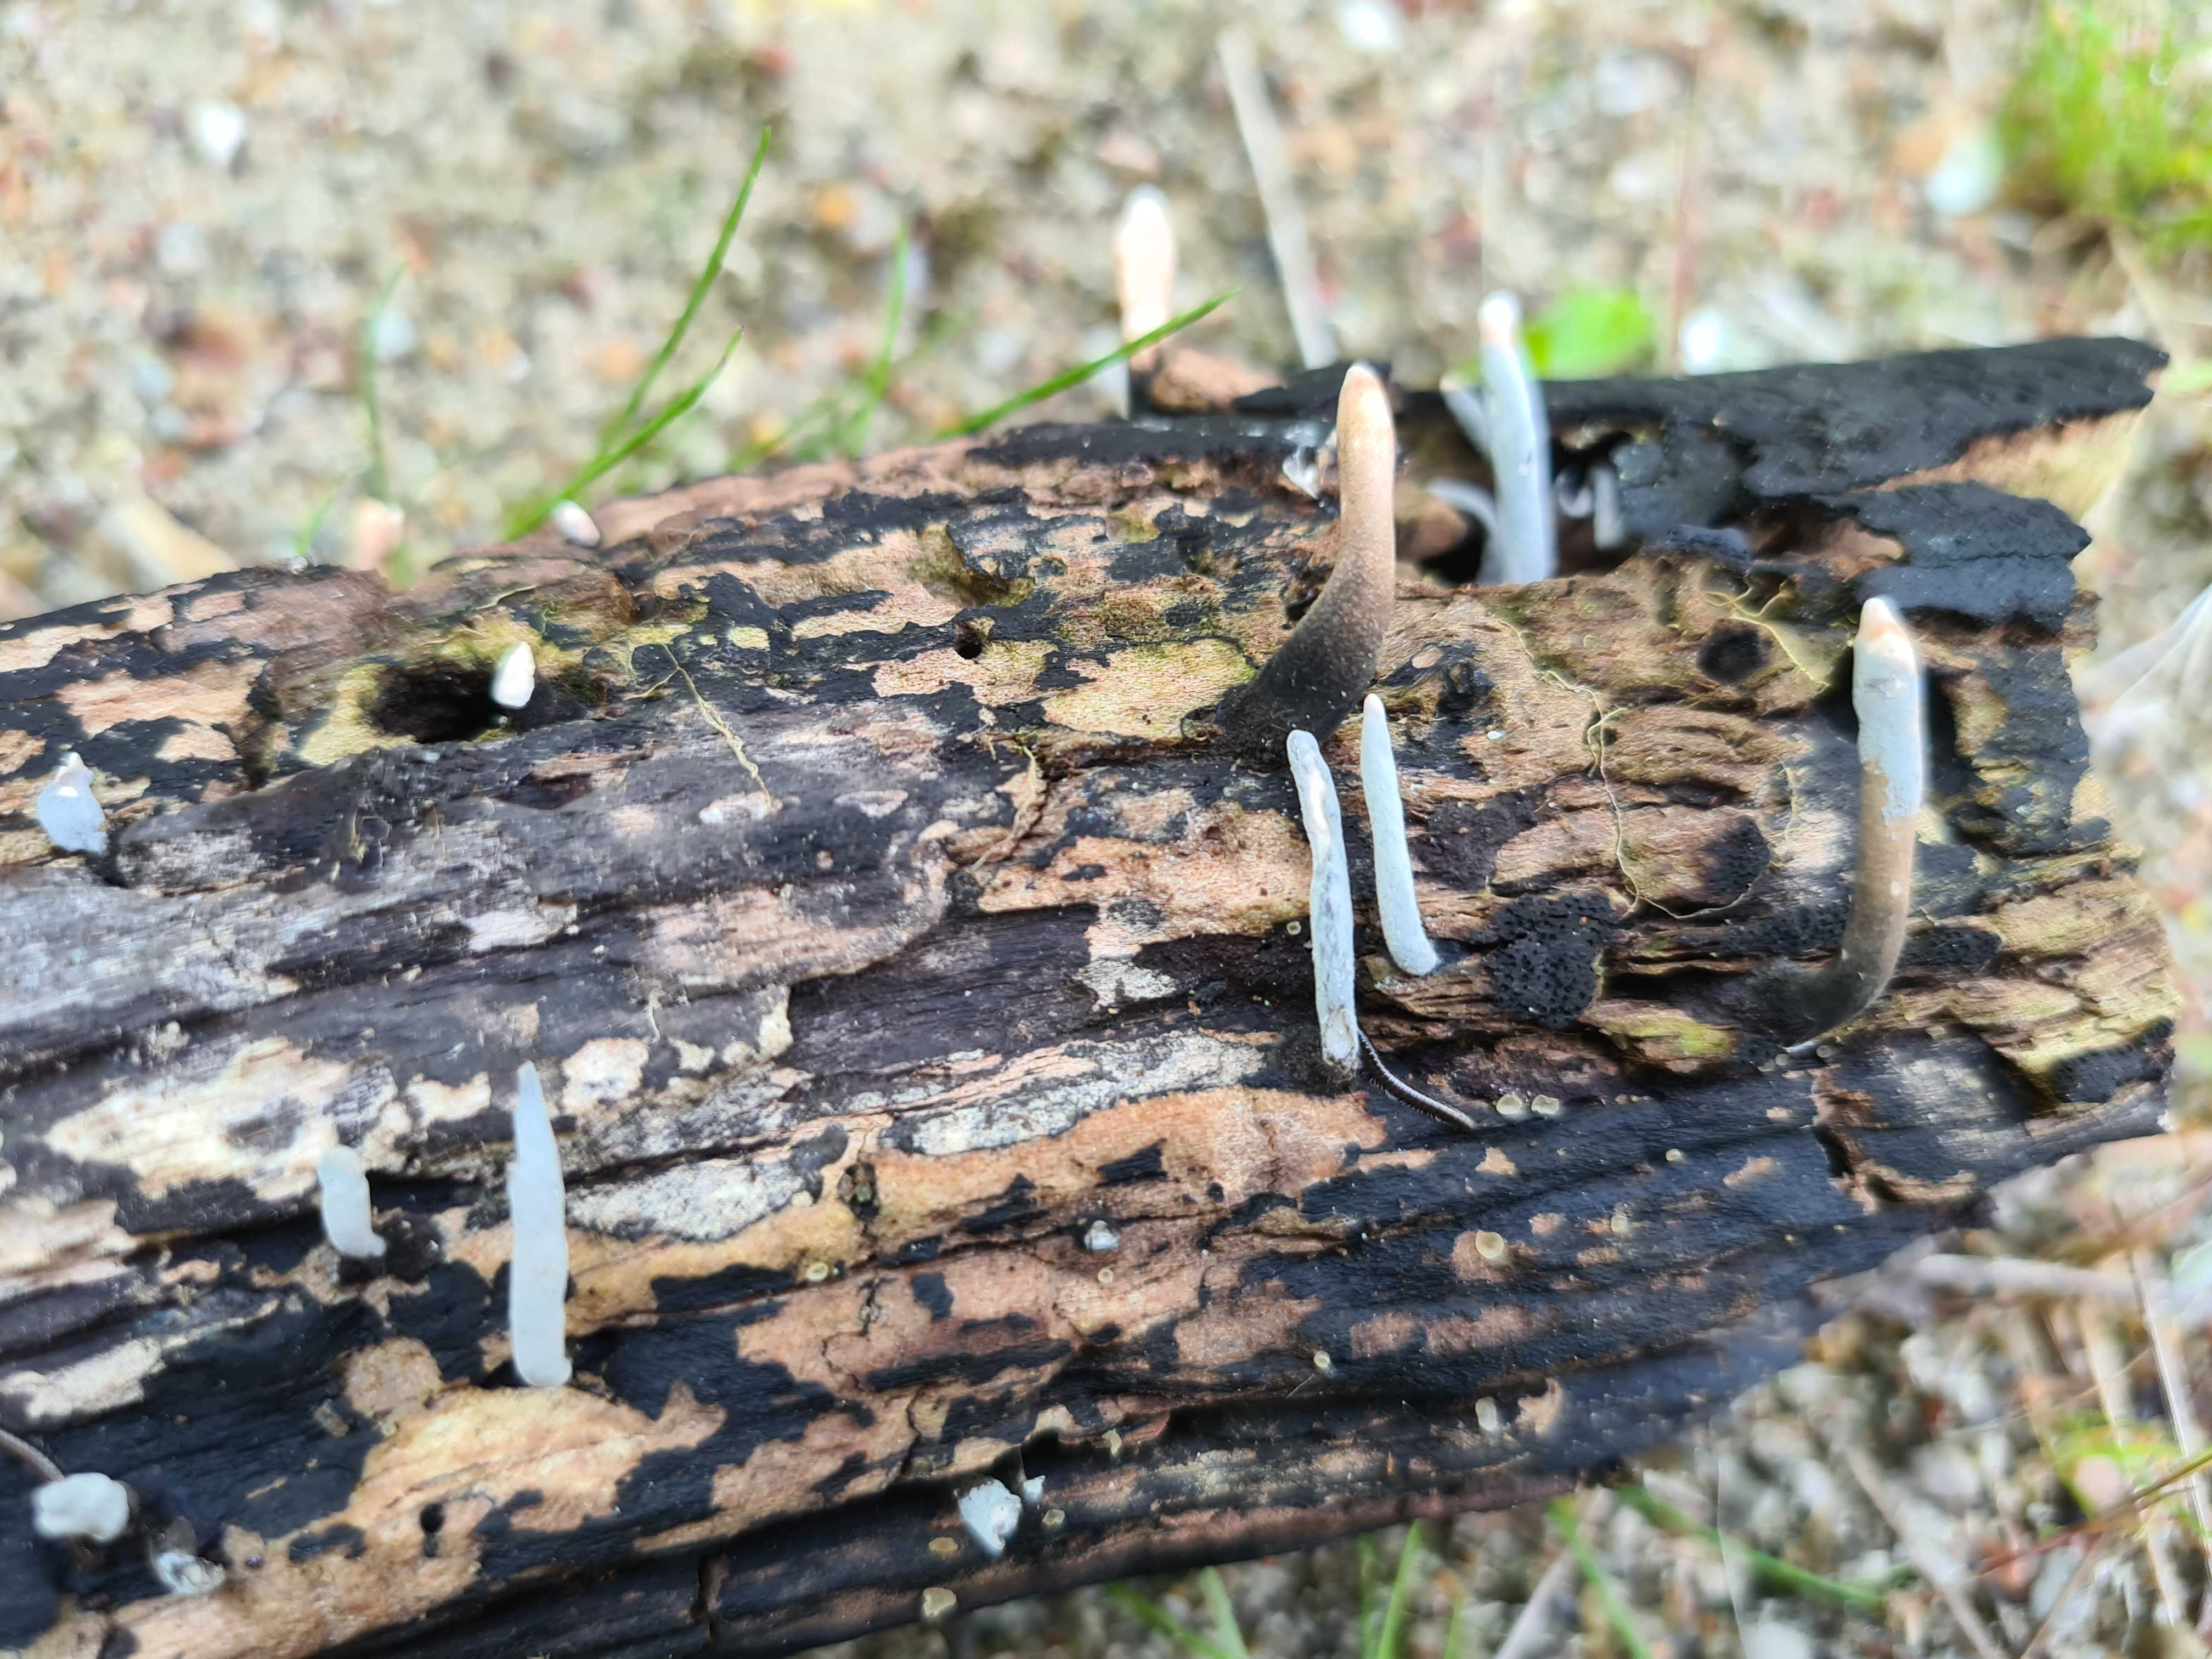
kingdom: Fungi
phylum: Ascomycota
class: Sordariomycetes
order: Xylariales
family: Xylariaceae
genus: Xylaria
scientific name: Xylaria longipes
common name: slank stødsvamp
